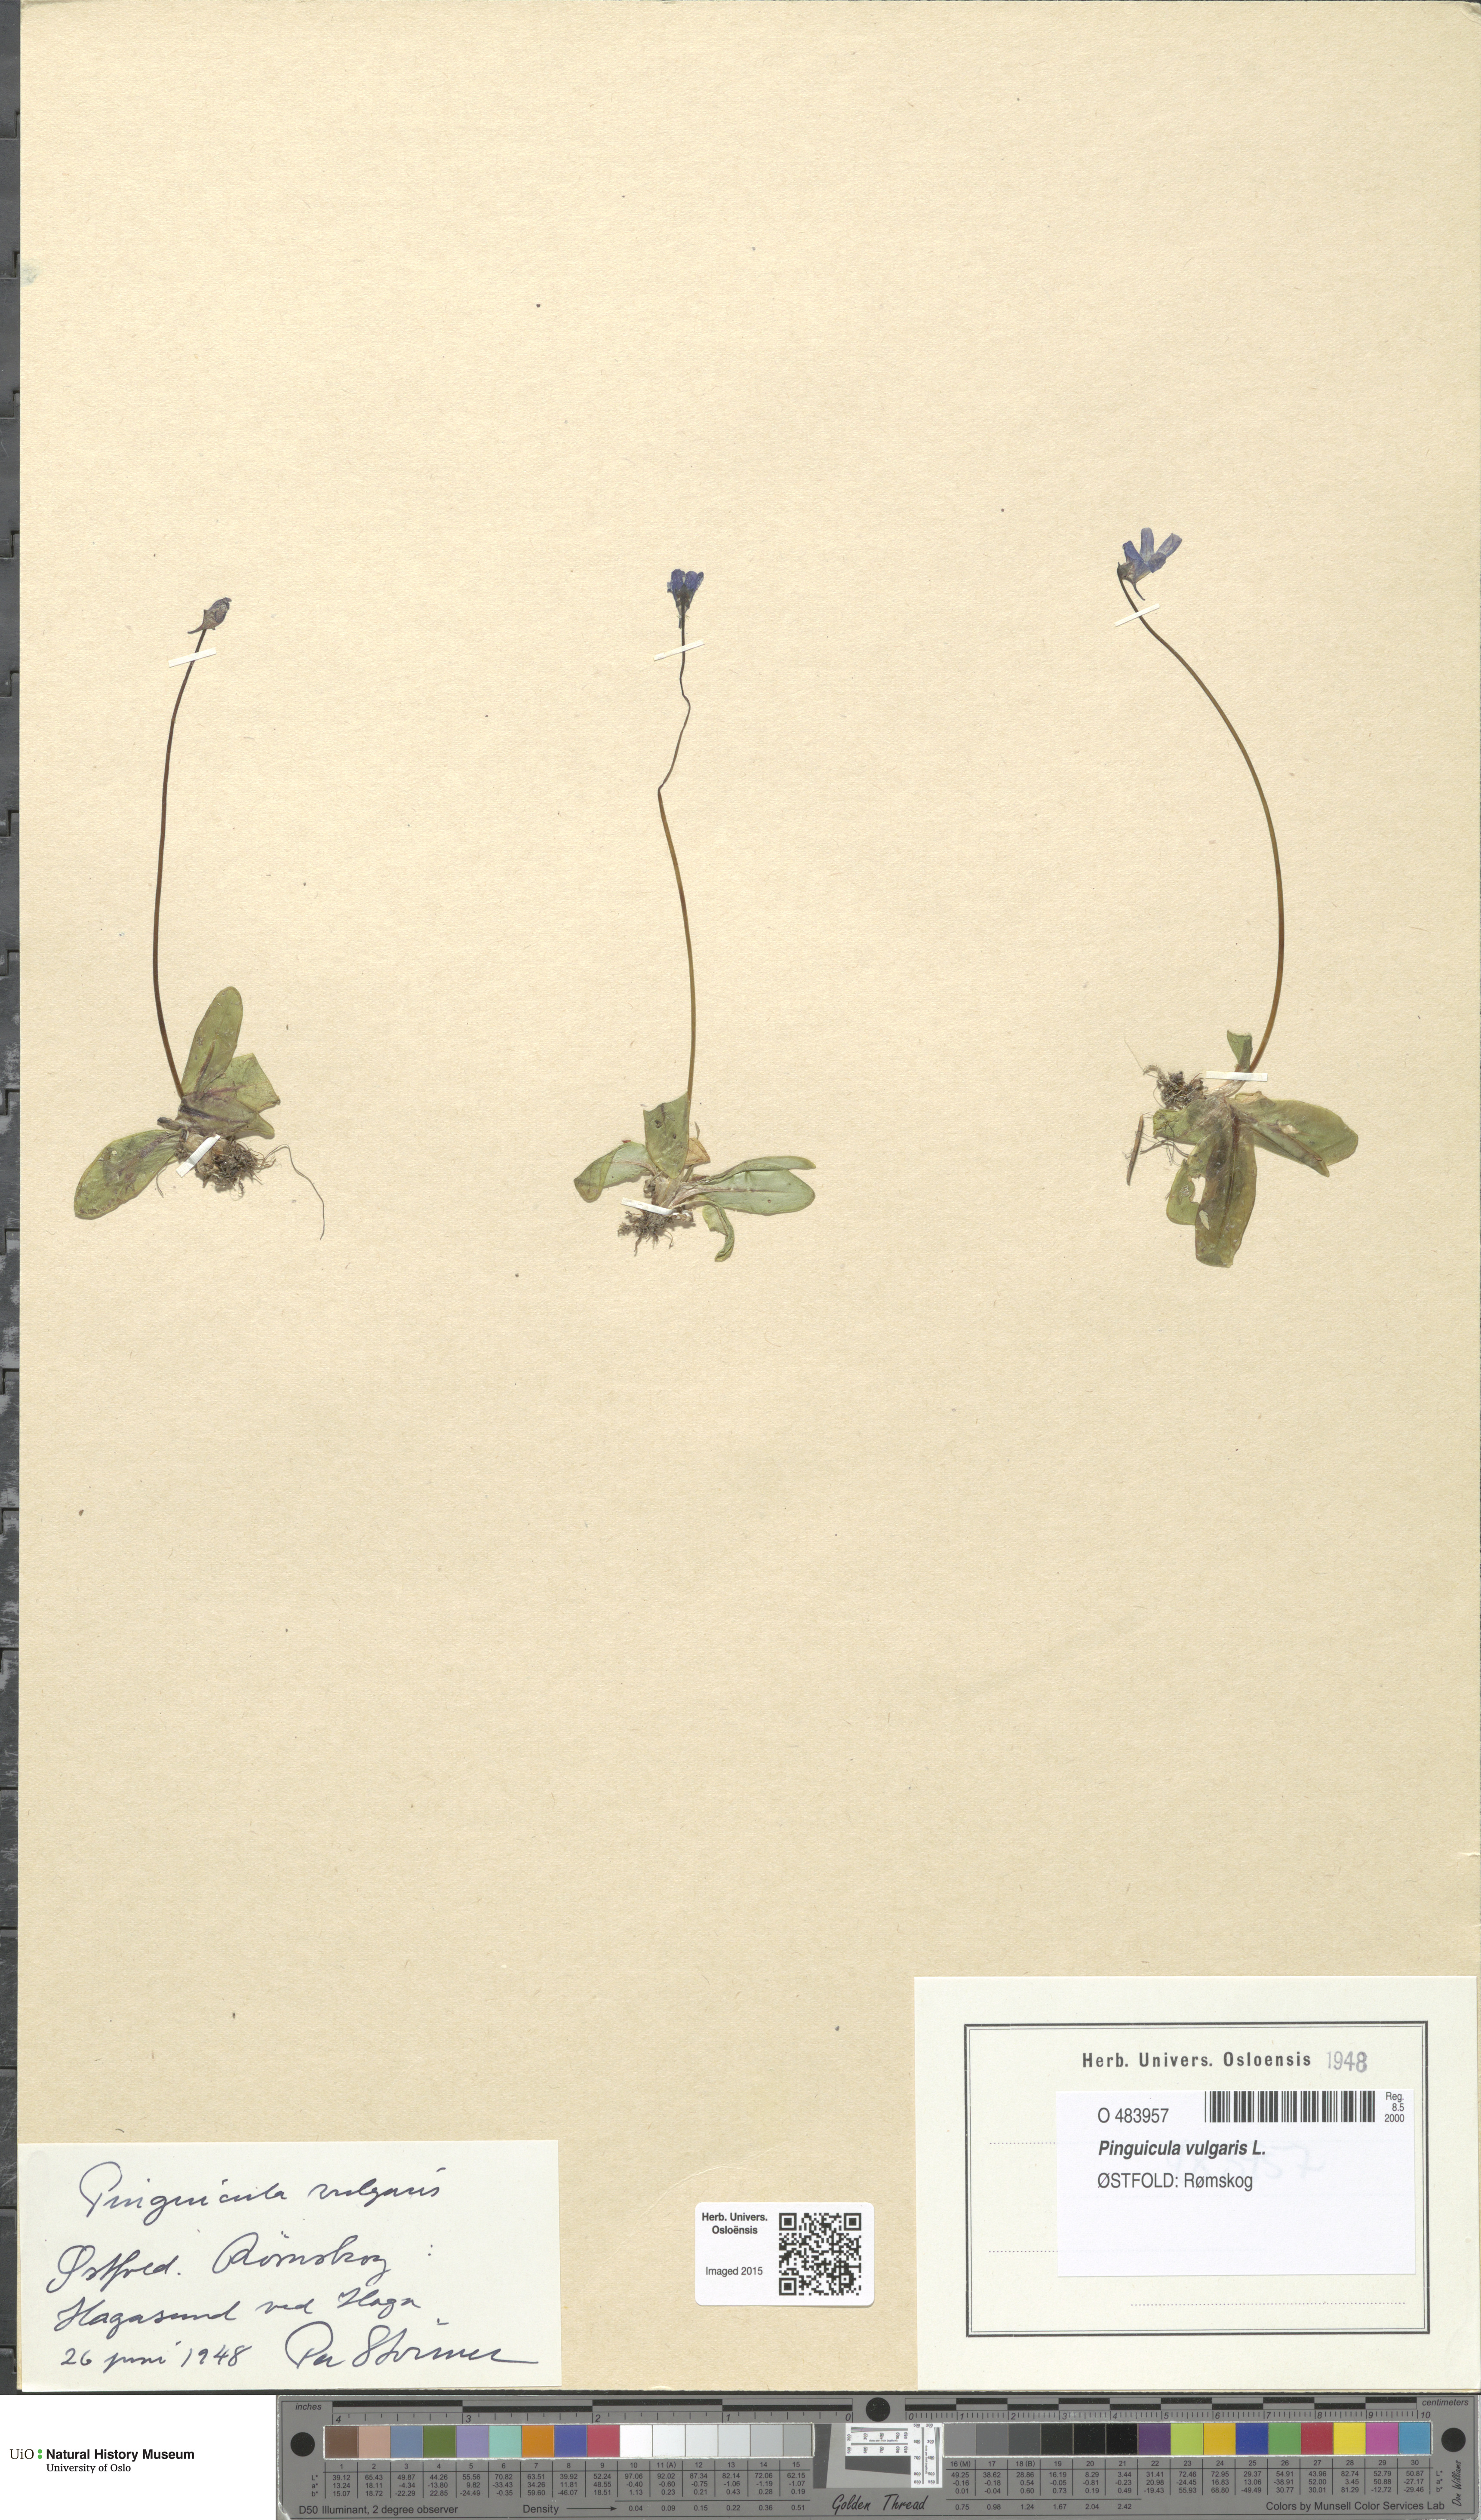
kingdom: Plantae
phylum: Tracheophyta
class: Magnoliopsida
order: Lamiales
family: Lentibulariaceae
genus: Pinguicula
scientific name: Pinguicula vulgaris
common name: Common butterwort
